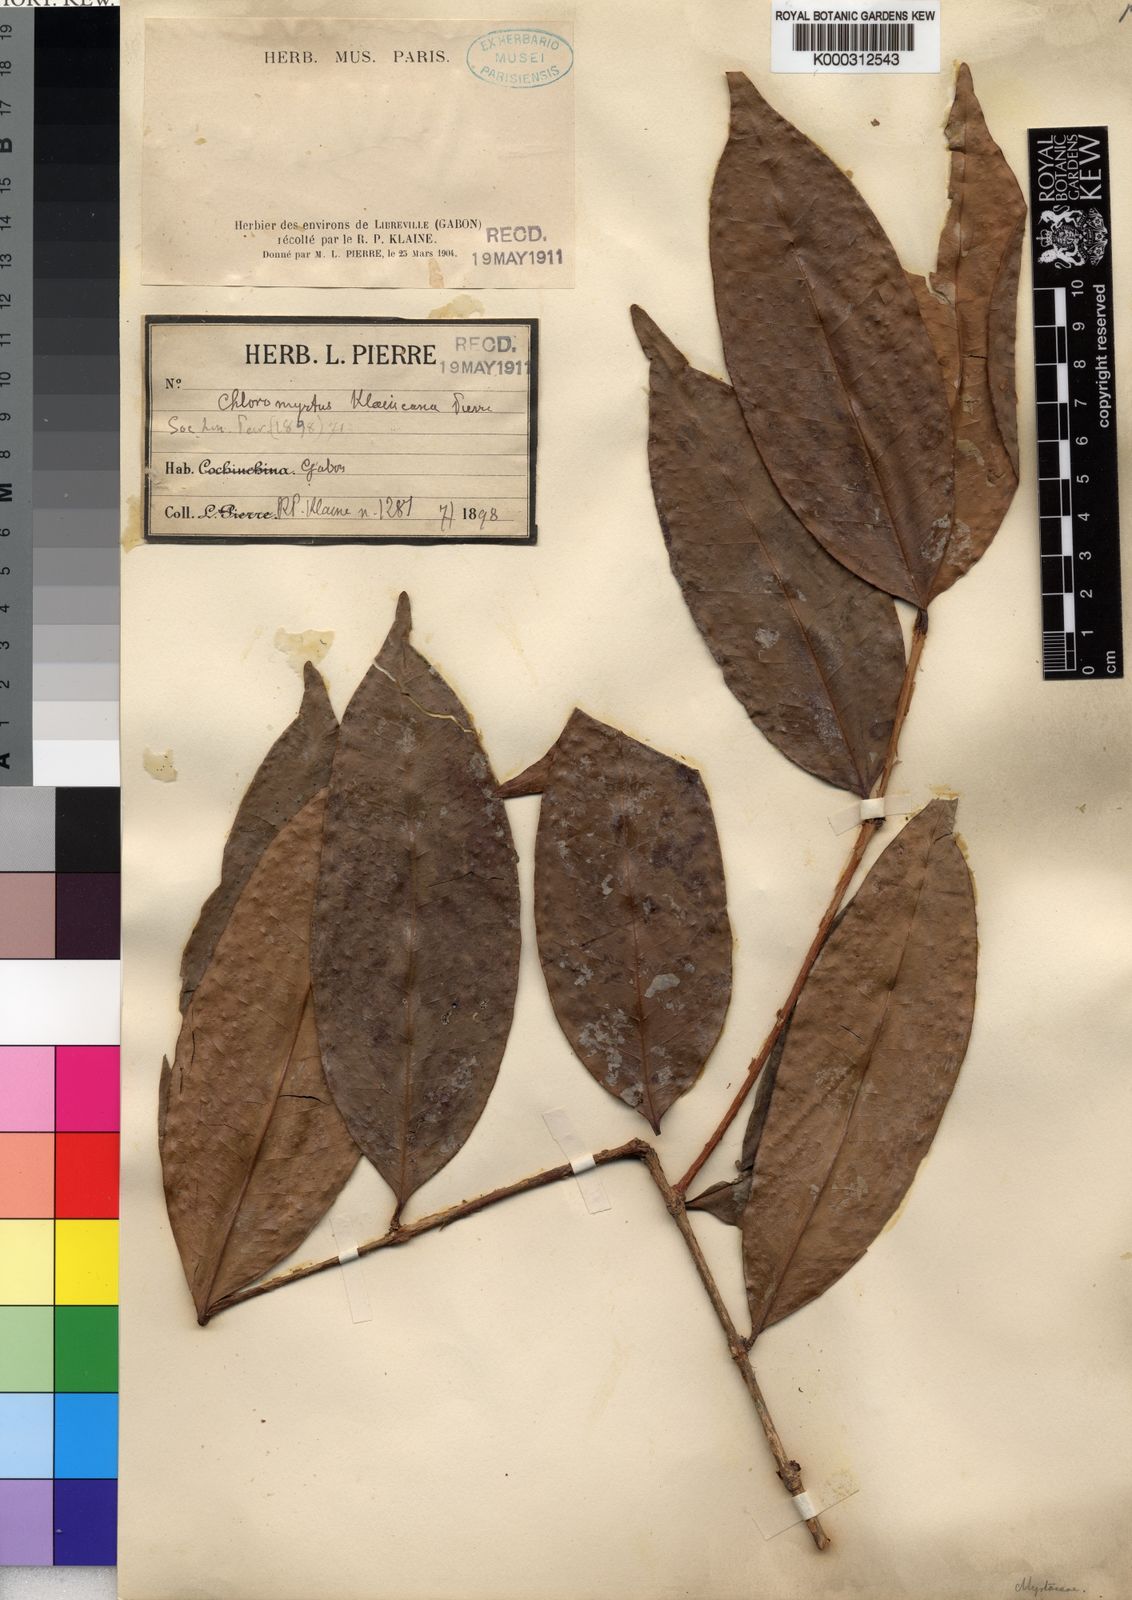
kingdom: Plantae
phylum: Tracheophyta
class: Magnoliopsida
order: Myrtales
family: Myrtaceae
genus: Eugenia
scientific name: Eugenia klaineana
